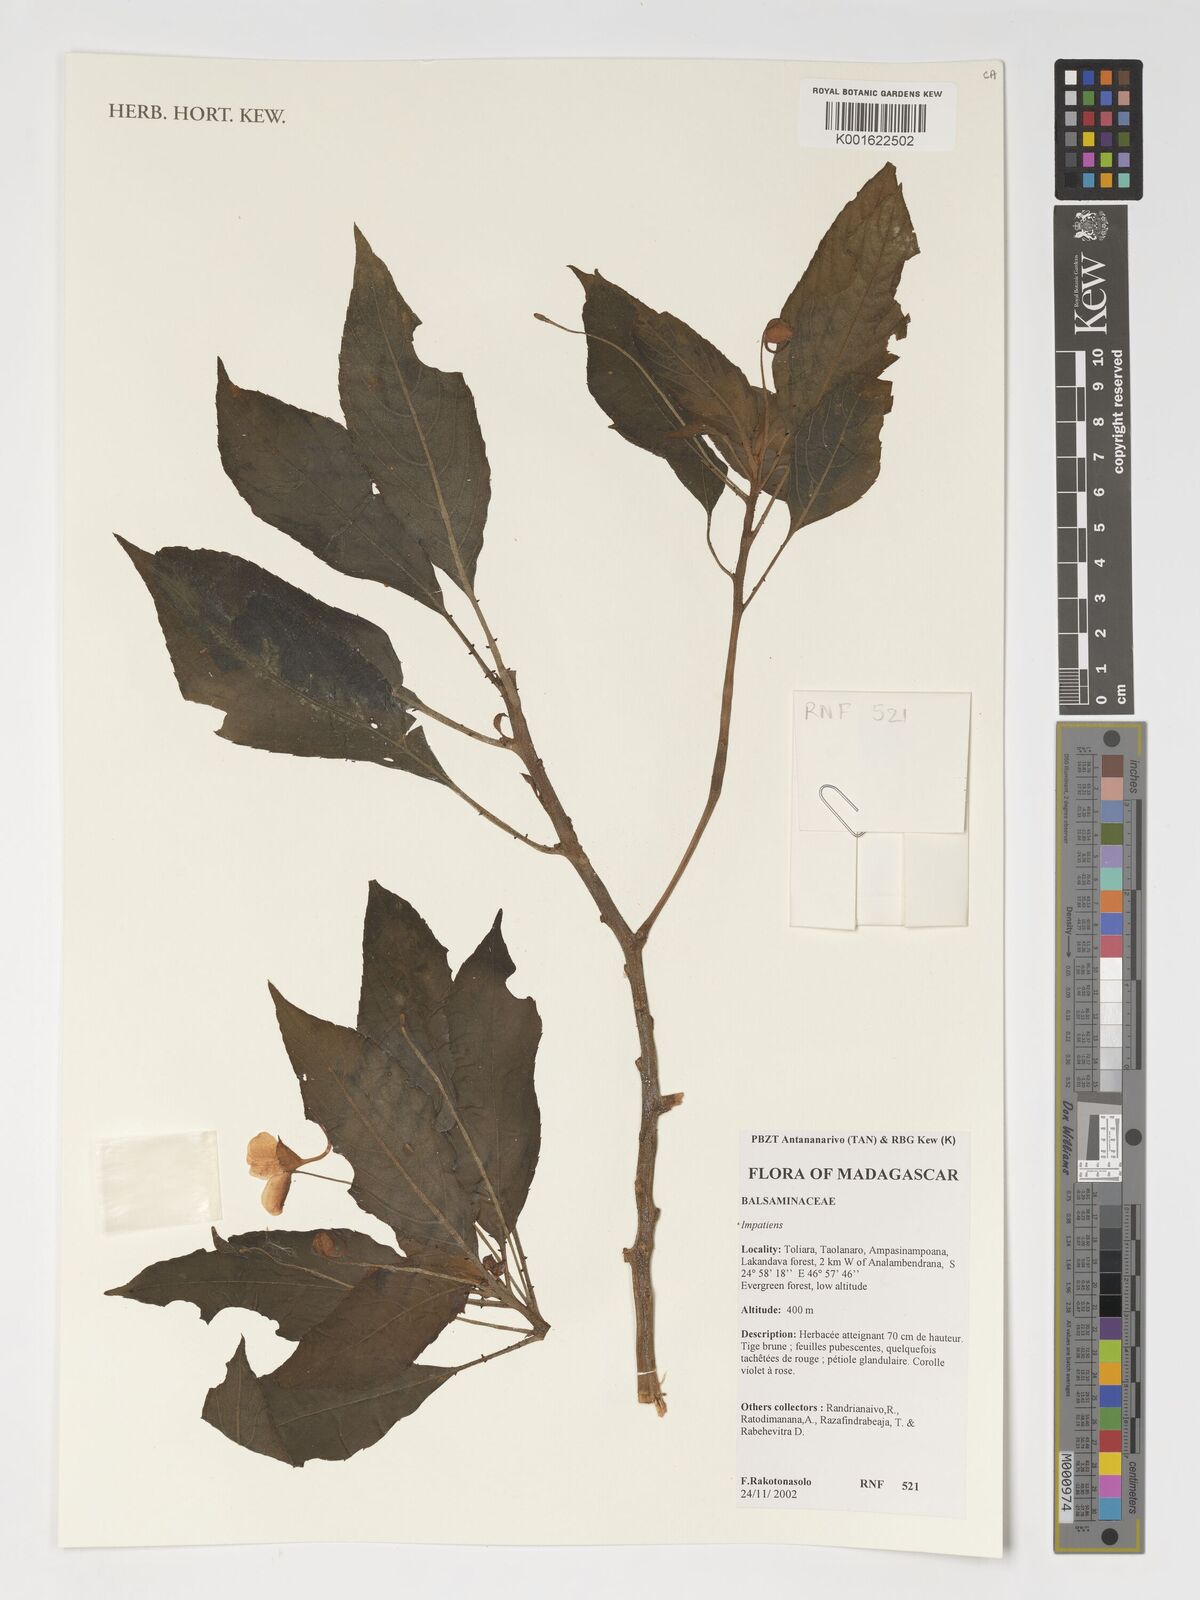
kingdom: Plantae
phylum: Tracheophyta
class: Magnoliopsida
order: Ericales
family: Balsaminaceae
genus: Impatiens
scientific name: Impatiens
